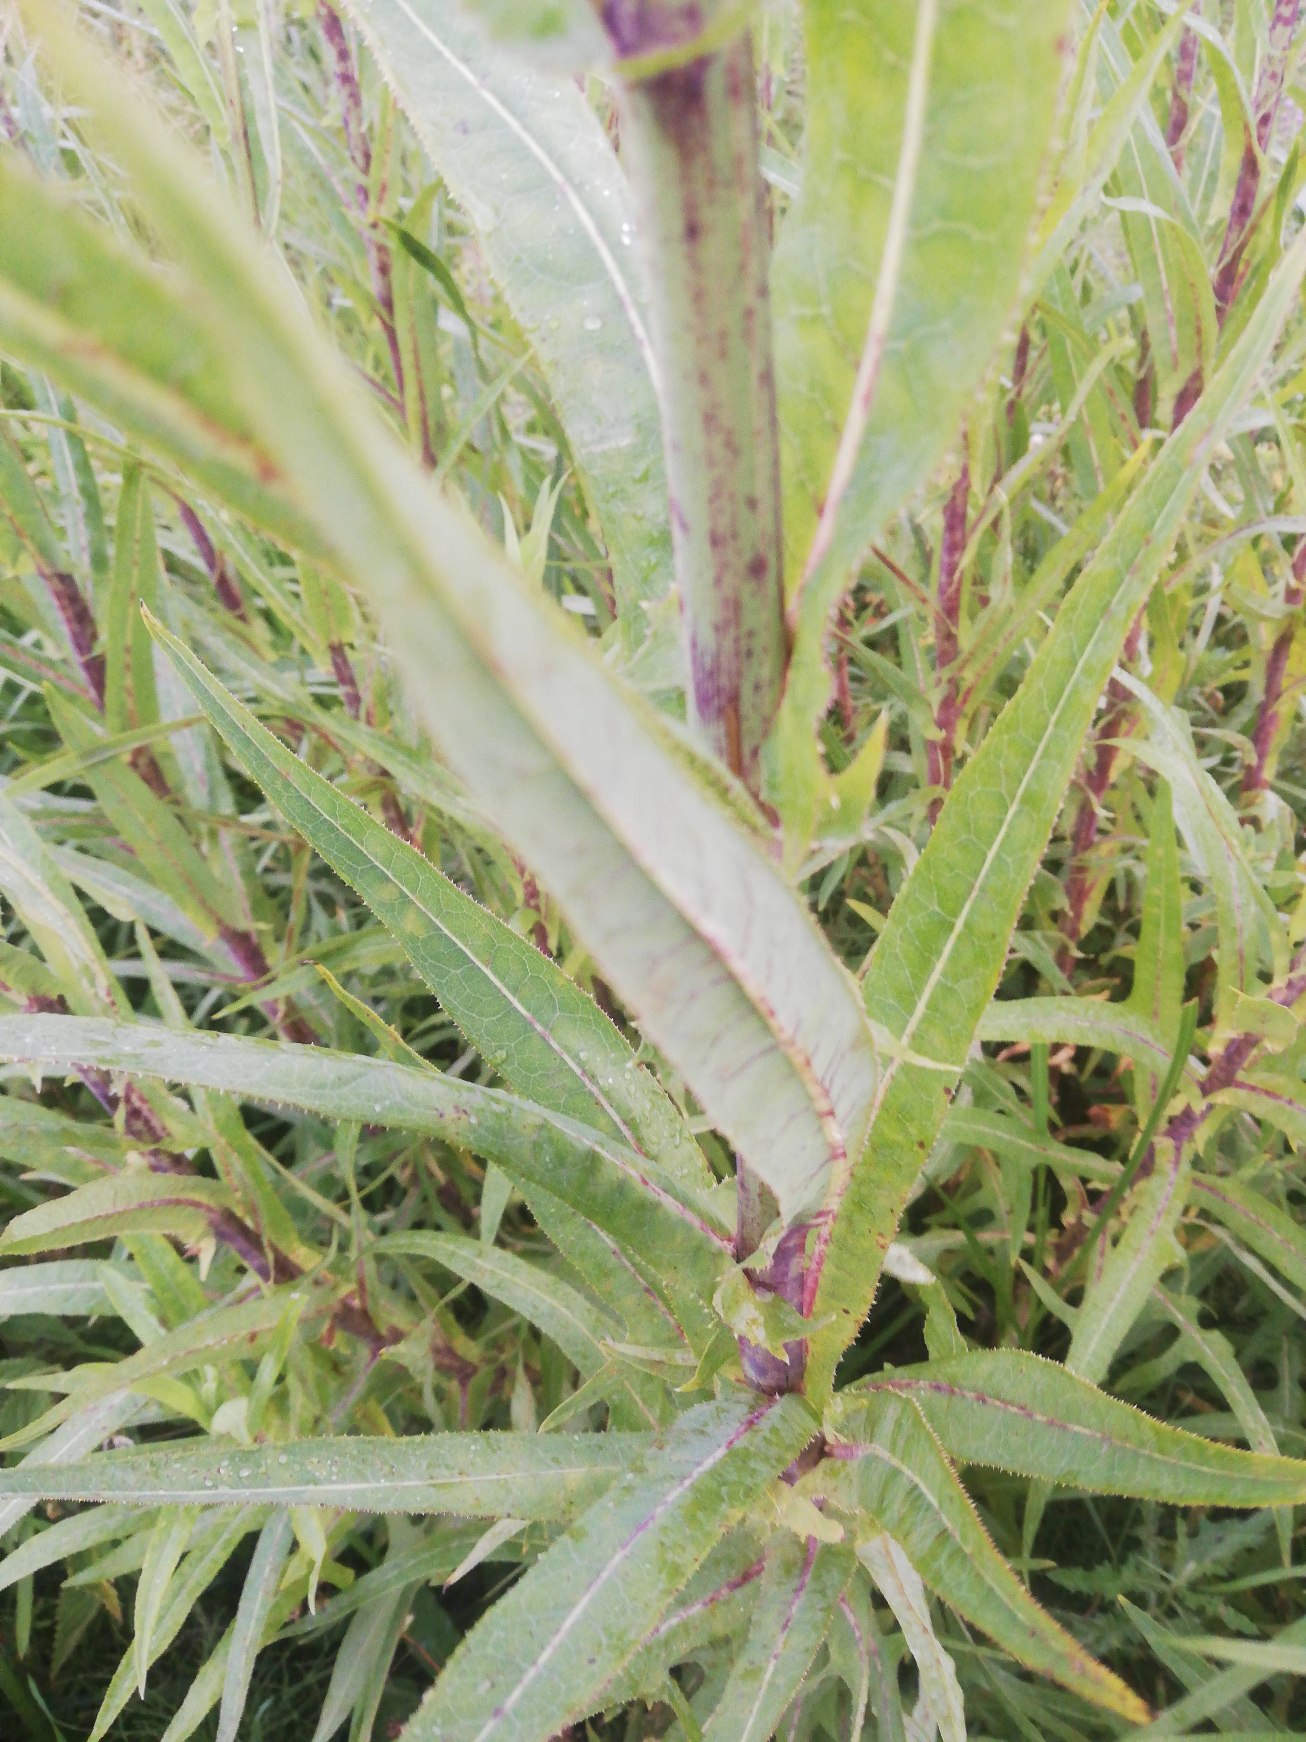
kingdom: Plantae
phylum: Tracheophyta
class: Magnoliopsida
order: Asterales
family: Asteraceae
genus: Sonchus
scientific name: Sonchus palustris
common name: Kær-svinemælk
